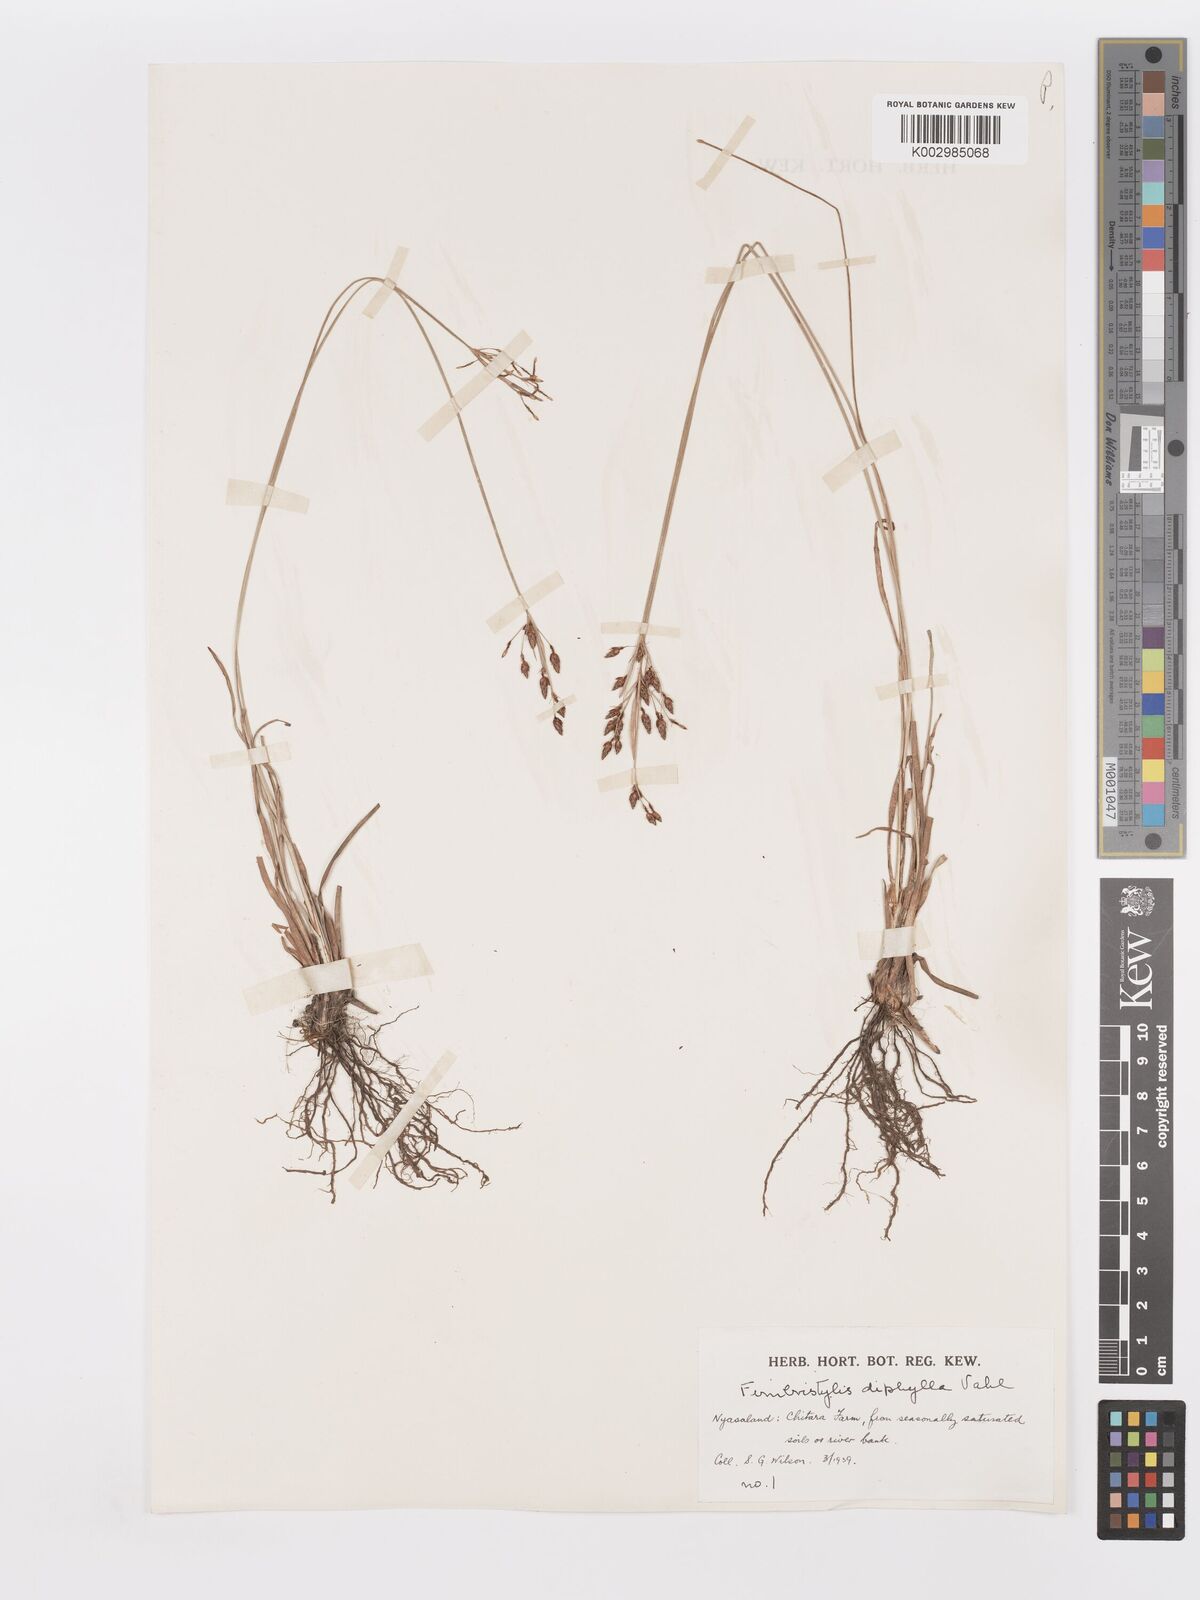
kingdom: Plantae
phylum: Tracheophyta
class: Liliopsida
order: Poales
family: Cyperaceae
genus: Fimbristylis
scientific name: Fimbristylis dichotoma
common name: Forked fimbry
